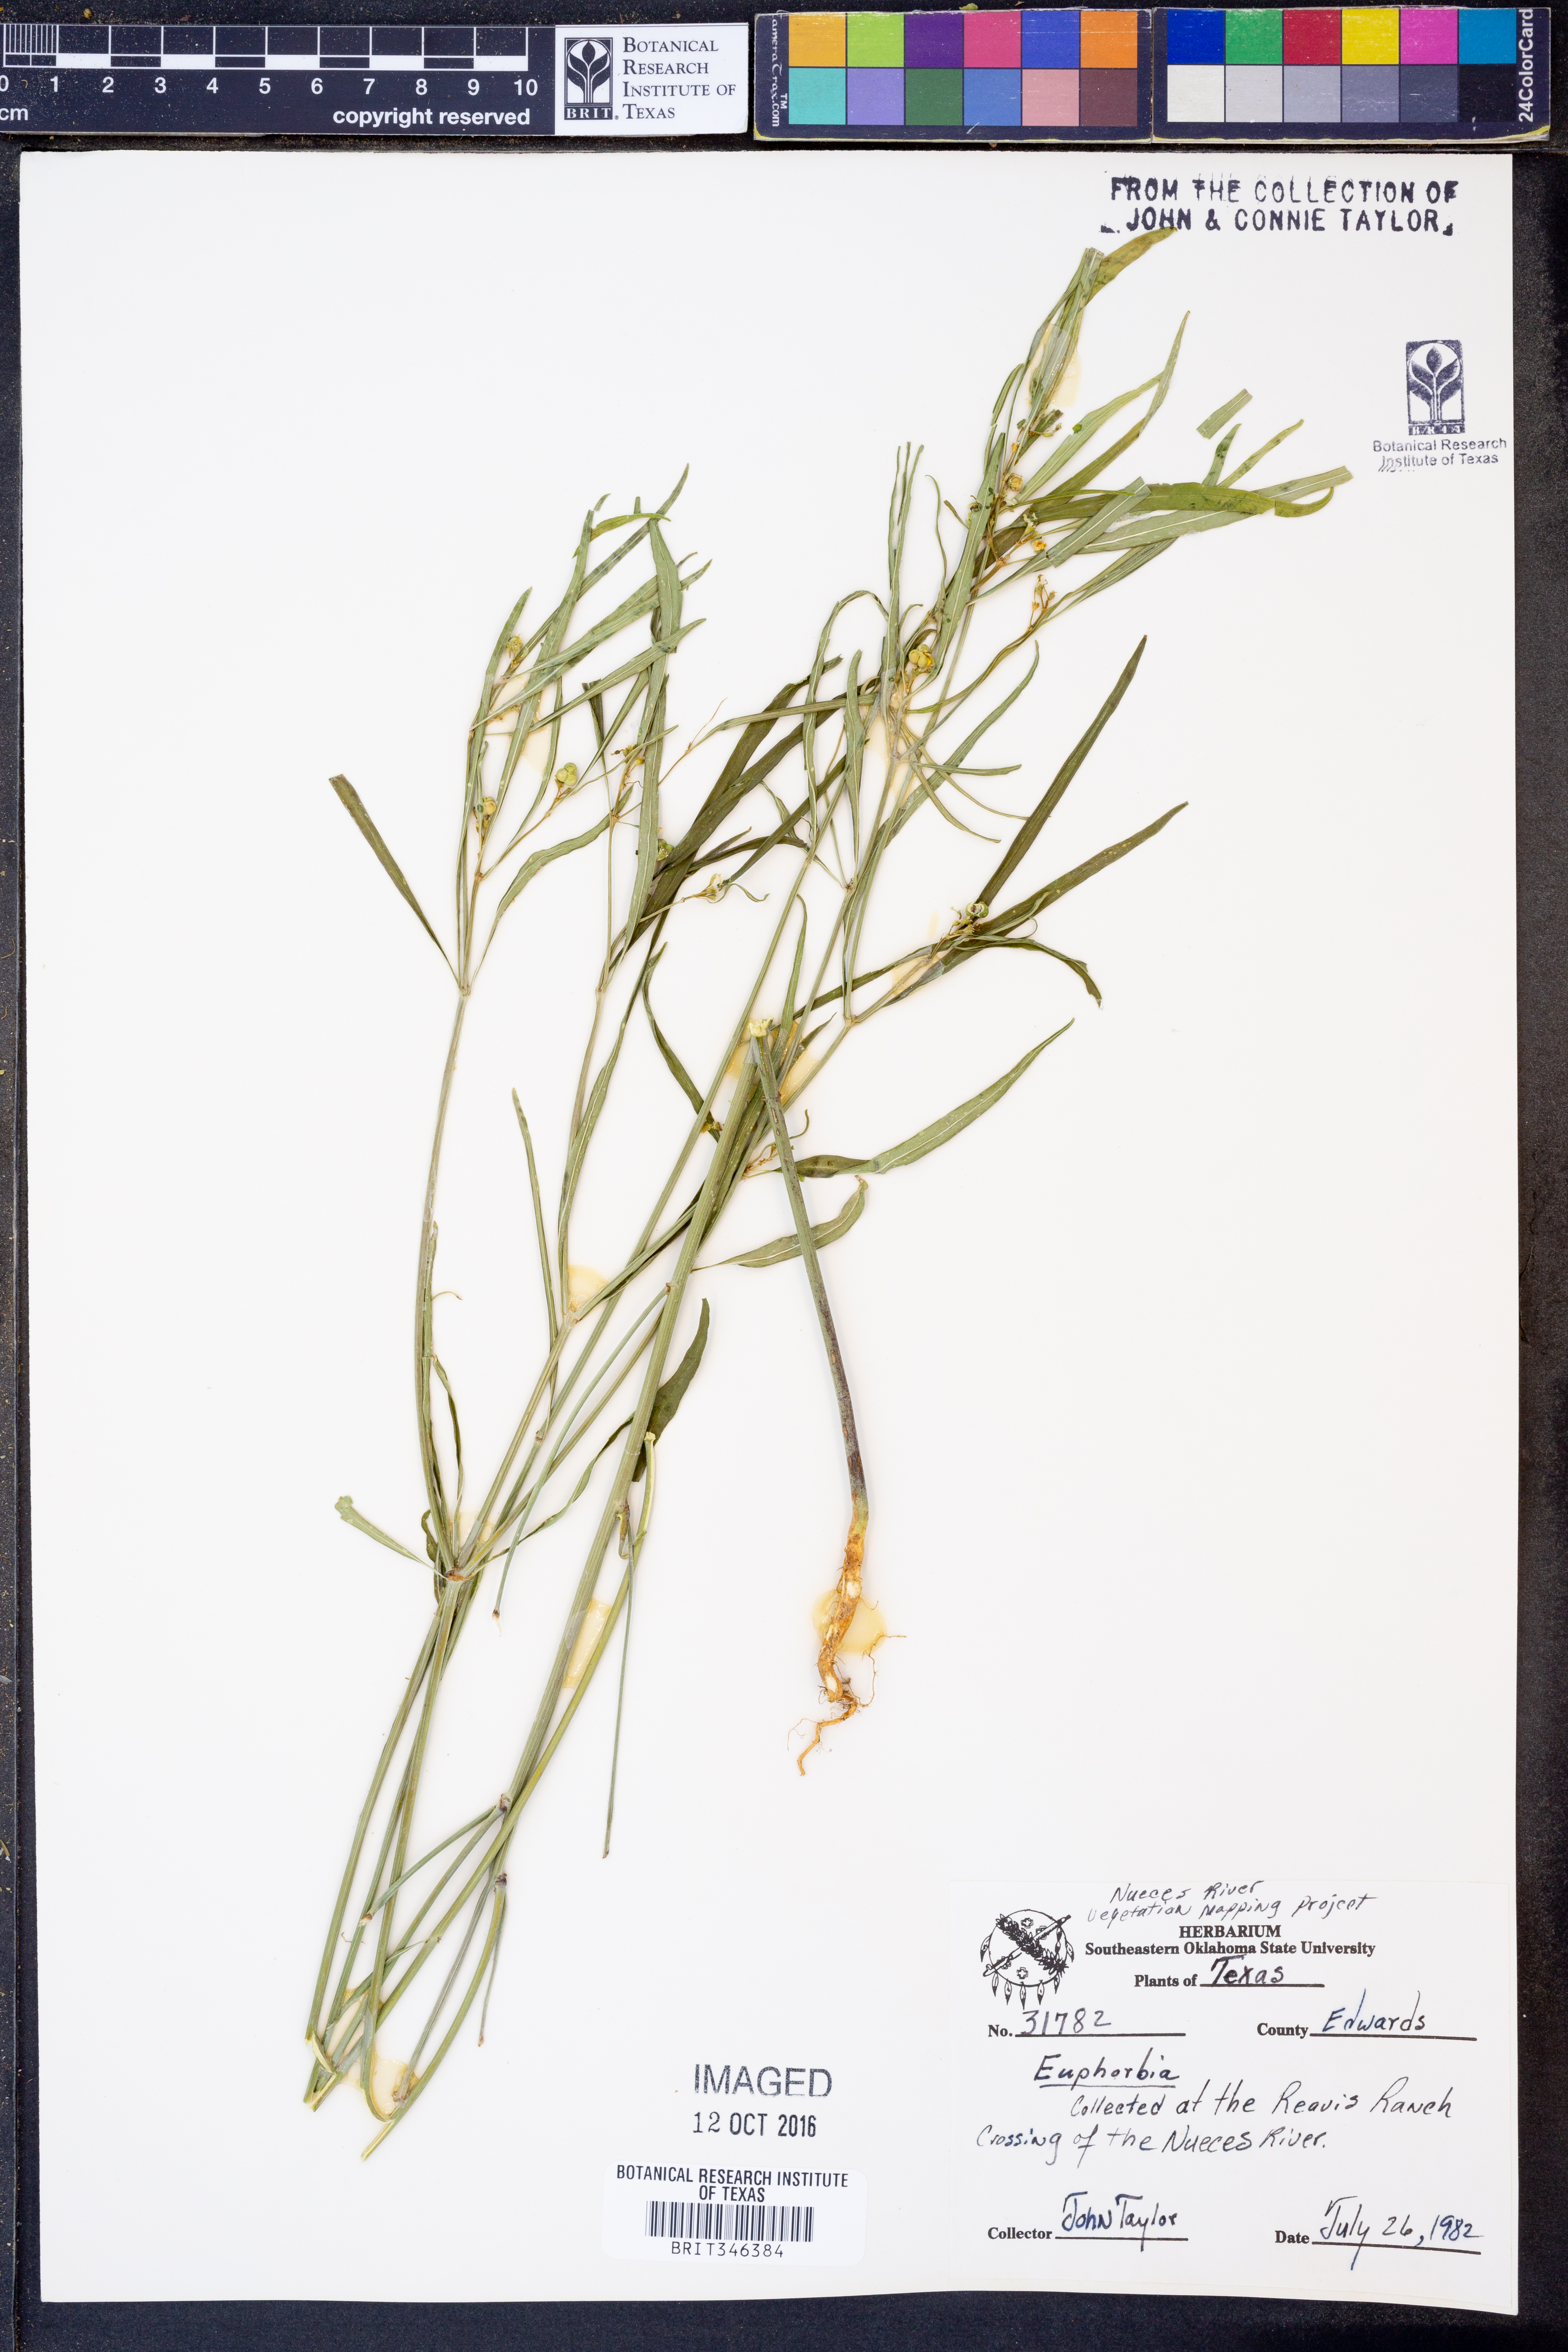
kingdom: Plantae
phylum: Tracheophyta
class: Magnoliopsida
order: Malpighiales
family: Euphorbiaceae
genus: Euphorbia
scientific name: Euphorbia
